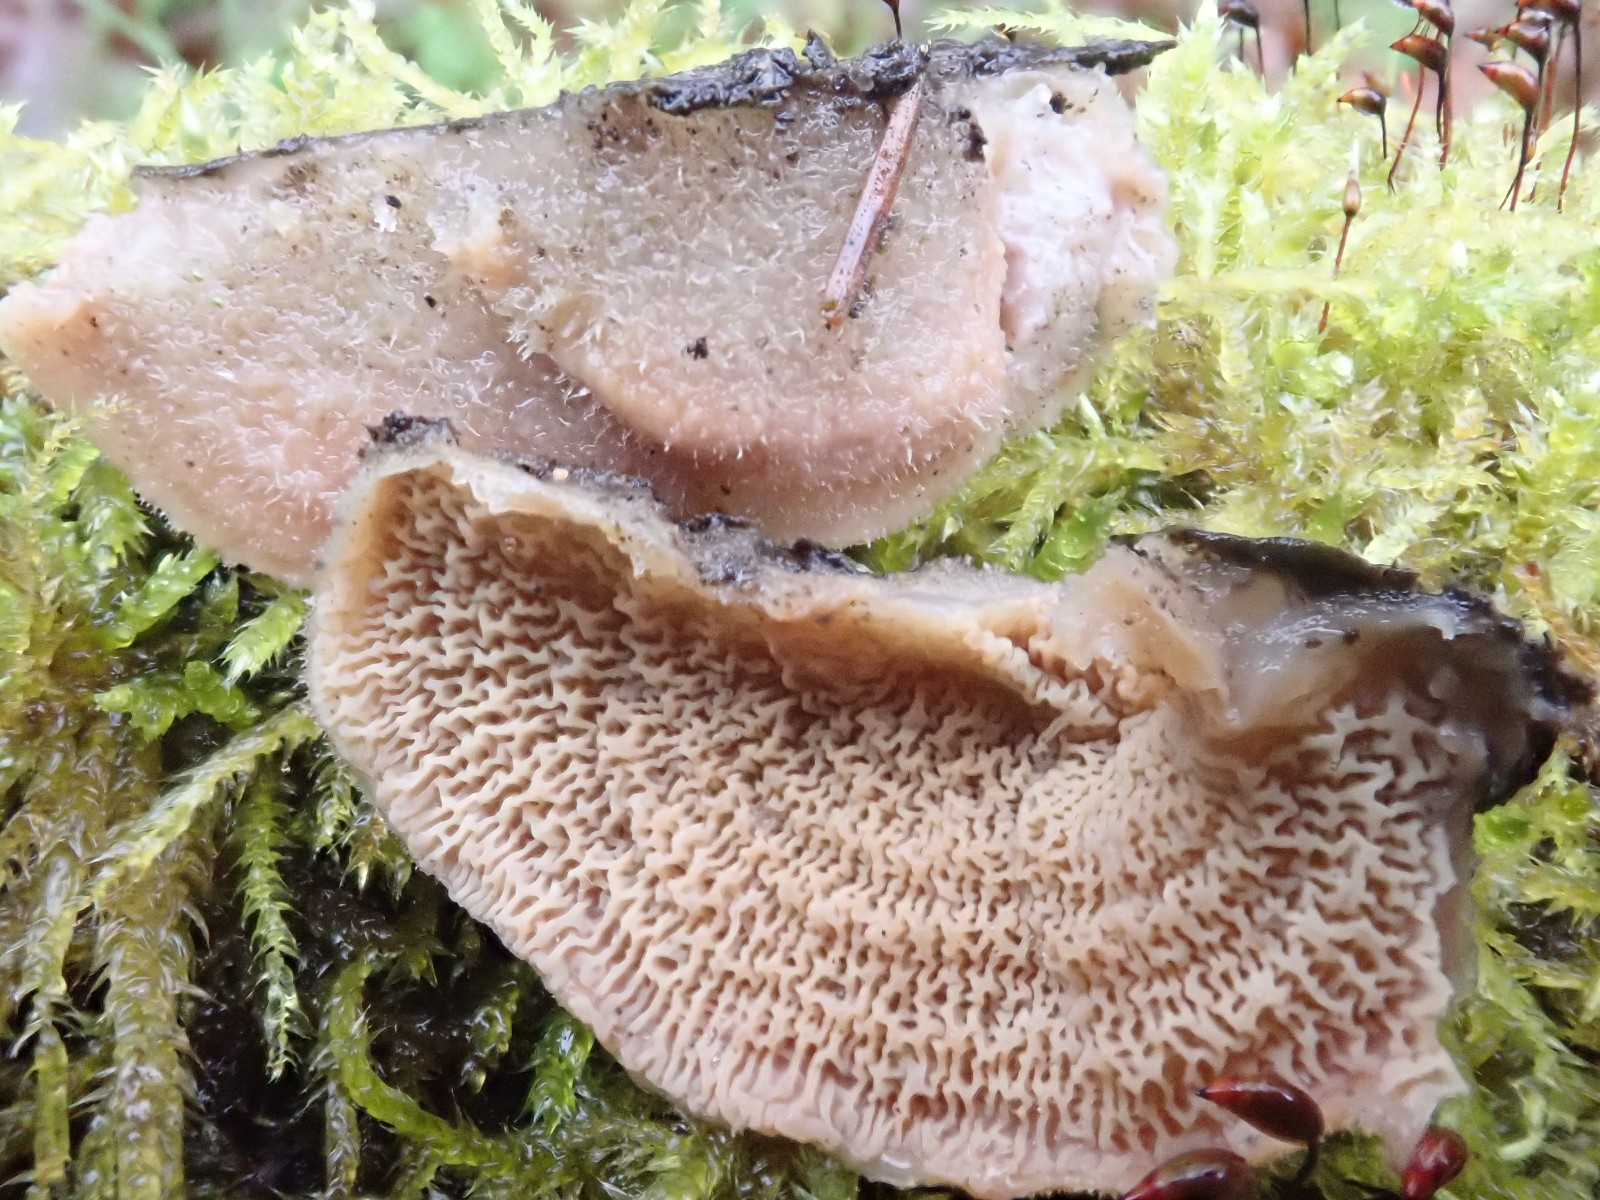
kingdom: Fungi
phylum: Basidiomycota
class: Agaricomycetes
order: Polyporales
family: Meruliaceae
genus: Phlebia
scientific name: Phlebia tremellosa
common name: bævrende åresvamp
